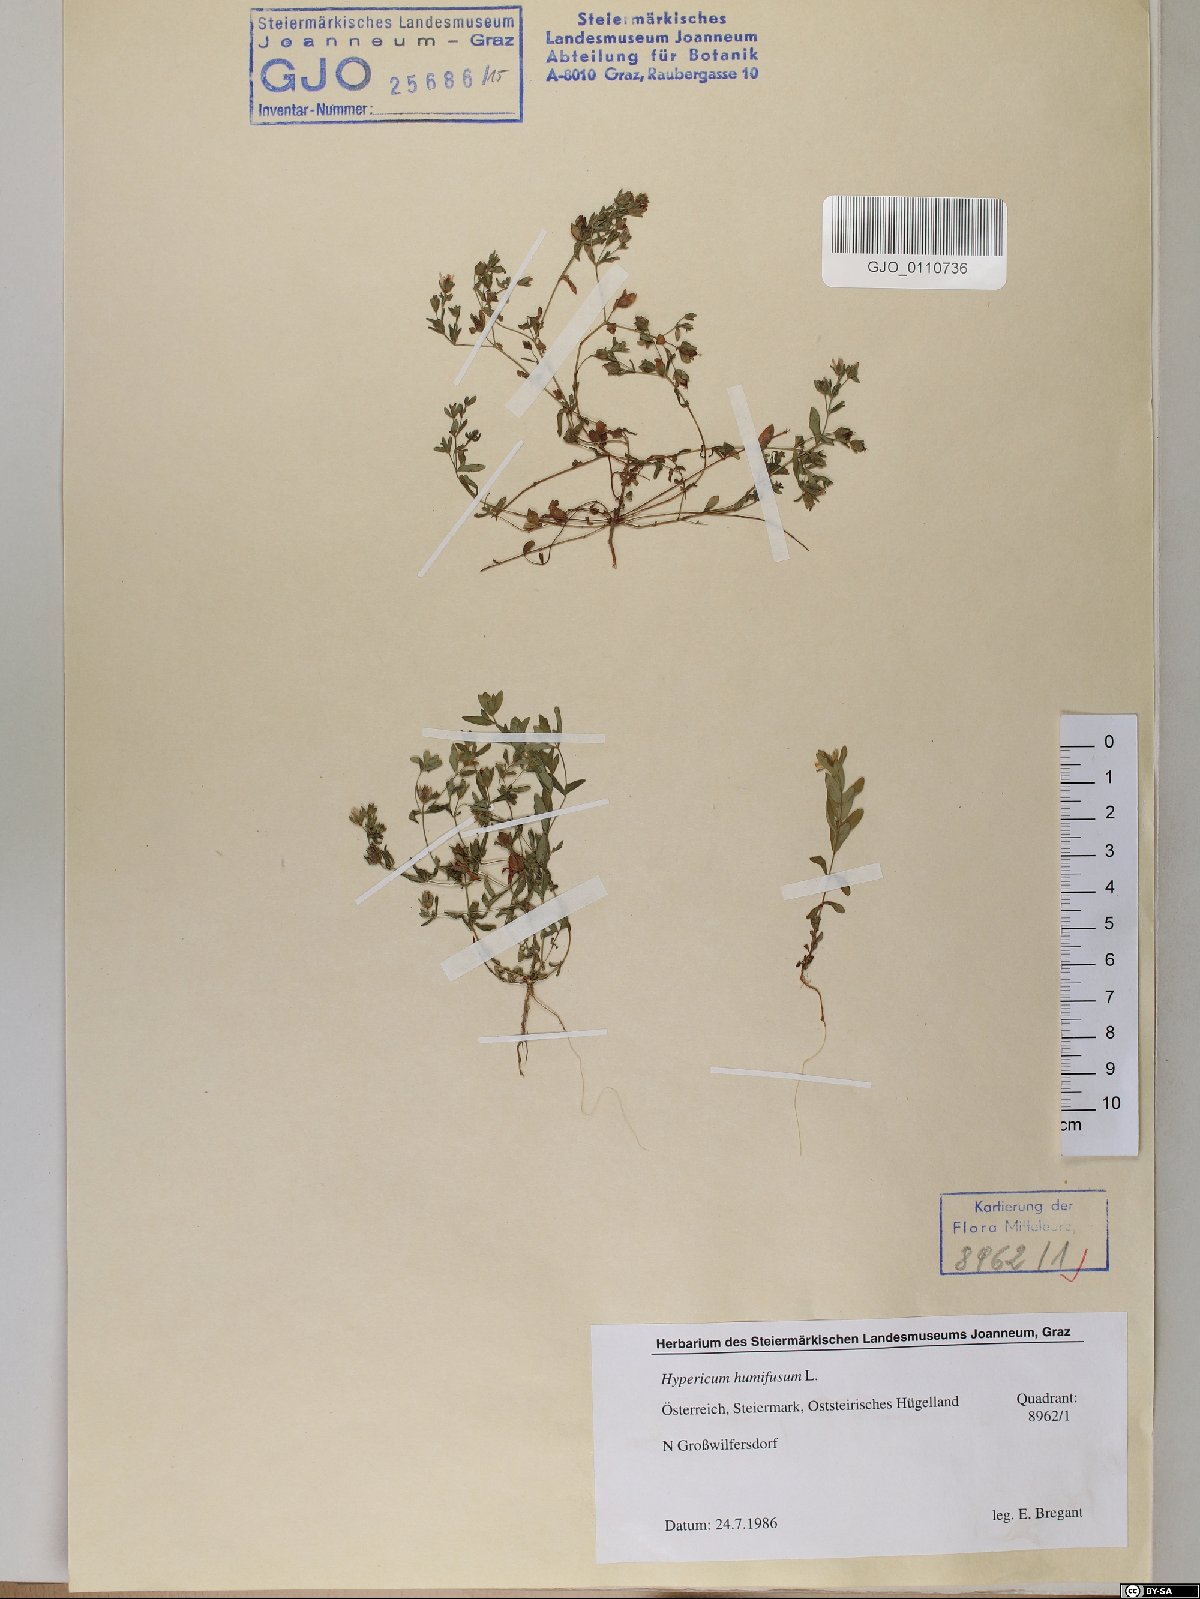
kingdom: Plantae
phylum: Tracheophyta
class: Magnoliopsida
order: Malpighiales
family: Hypericaceae
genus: Hypericum
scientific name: Hypericum humifusum
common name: Trailing st. john's-wort
